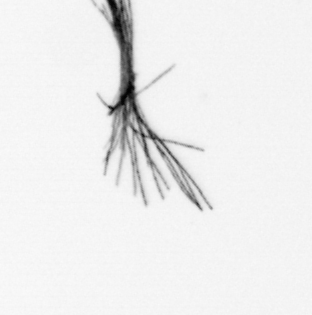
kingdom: Bacteria
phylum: Cyanobacteria
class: Cyanobacteriia
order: Cyanobacteriales
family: Microcoleaceae
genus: Trichodesmium
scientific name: Trichodesmium
